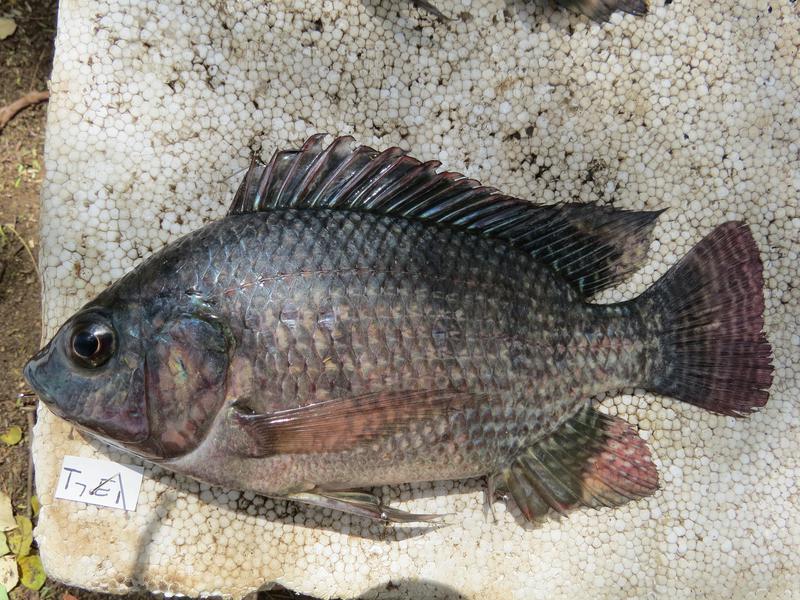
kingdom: Animalia
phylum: Chordata
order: Perciformes
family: Cichlidae
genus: Oreochromis
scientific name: Oreochromis niloticus
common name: Nile tilapia
